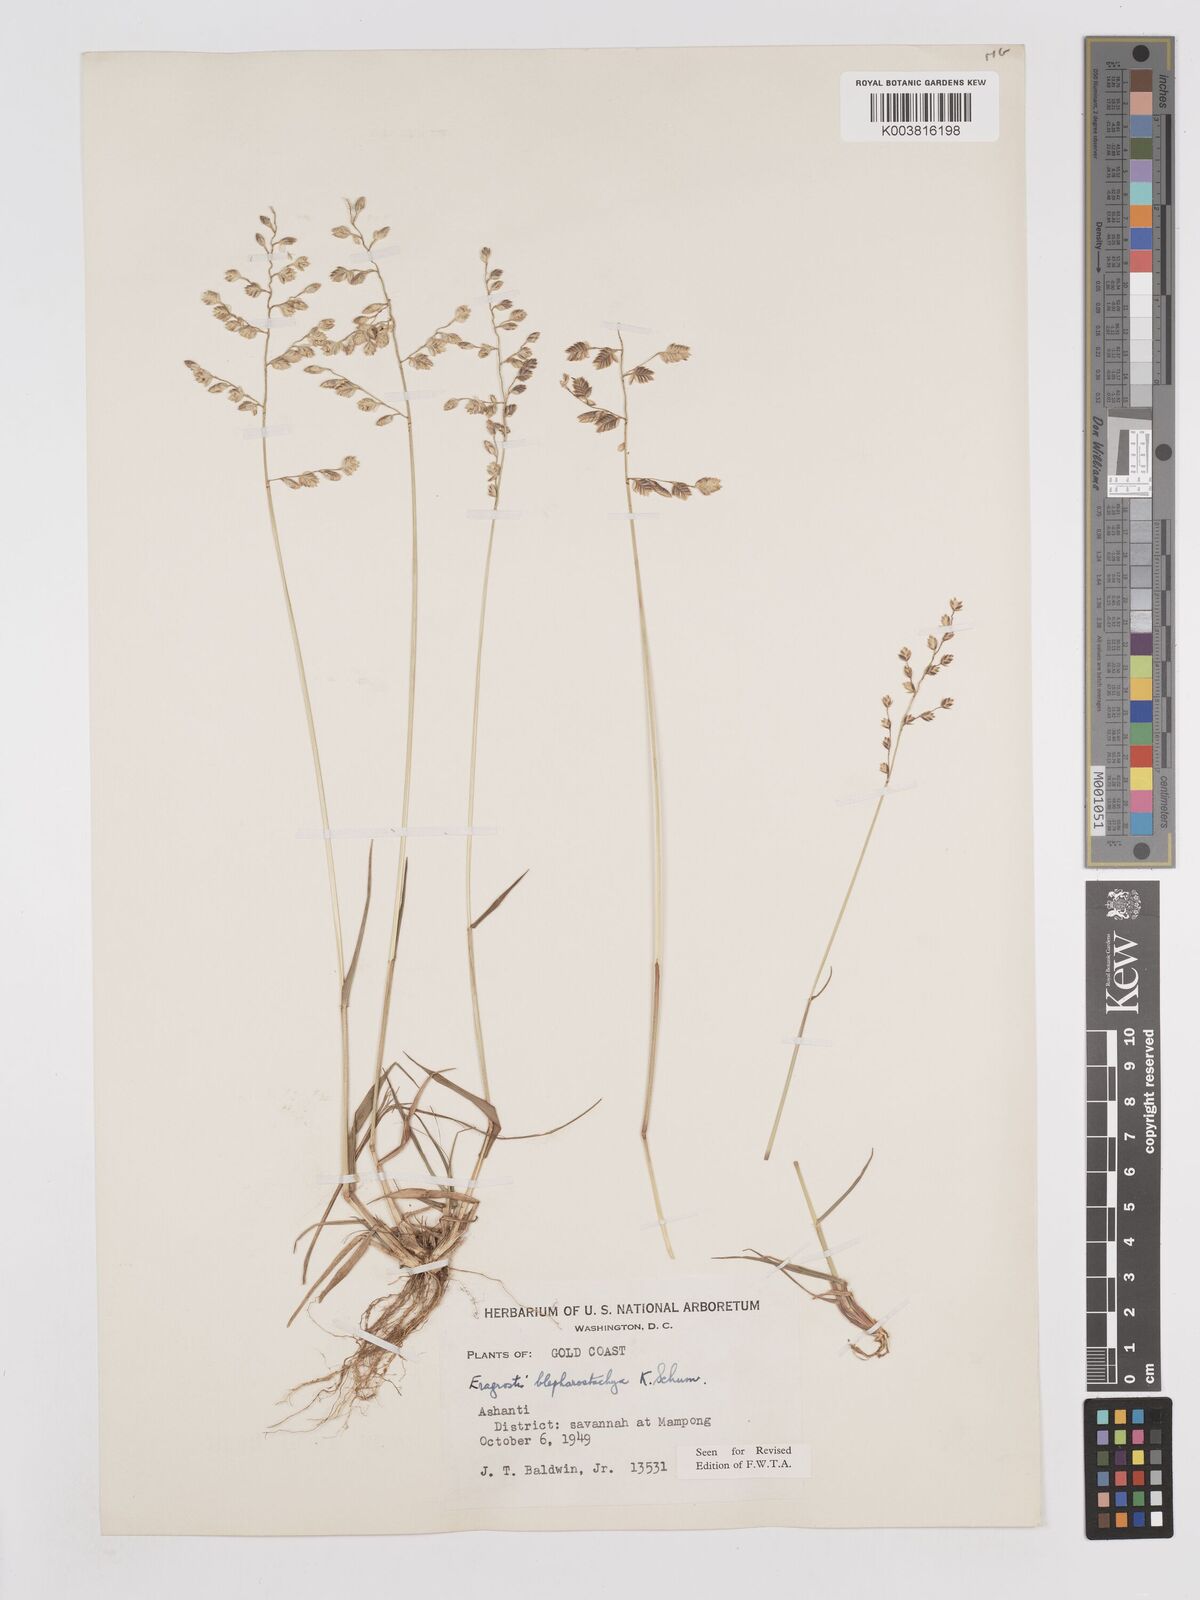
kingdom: Plantae
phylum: Tracheophyta
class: Liliopsida
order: Poales
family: Poaceae
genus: Eragrostis
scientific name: Eragrostis blepharostachya
